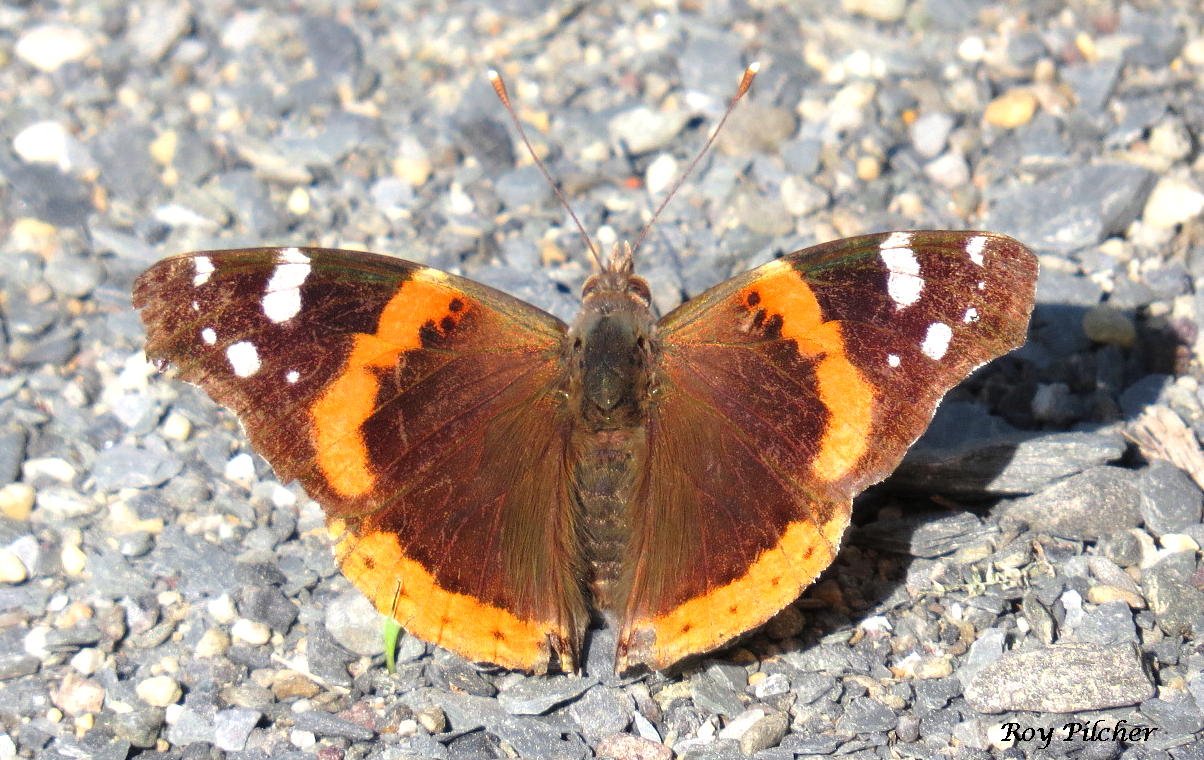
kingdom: Animalia
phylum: Arthropoda
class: Insecta
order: Lepidoptera
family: Nymphalidae
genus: Vanessa
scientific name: Vanessa atalanta
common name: Red Admiral
